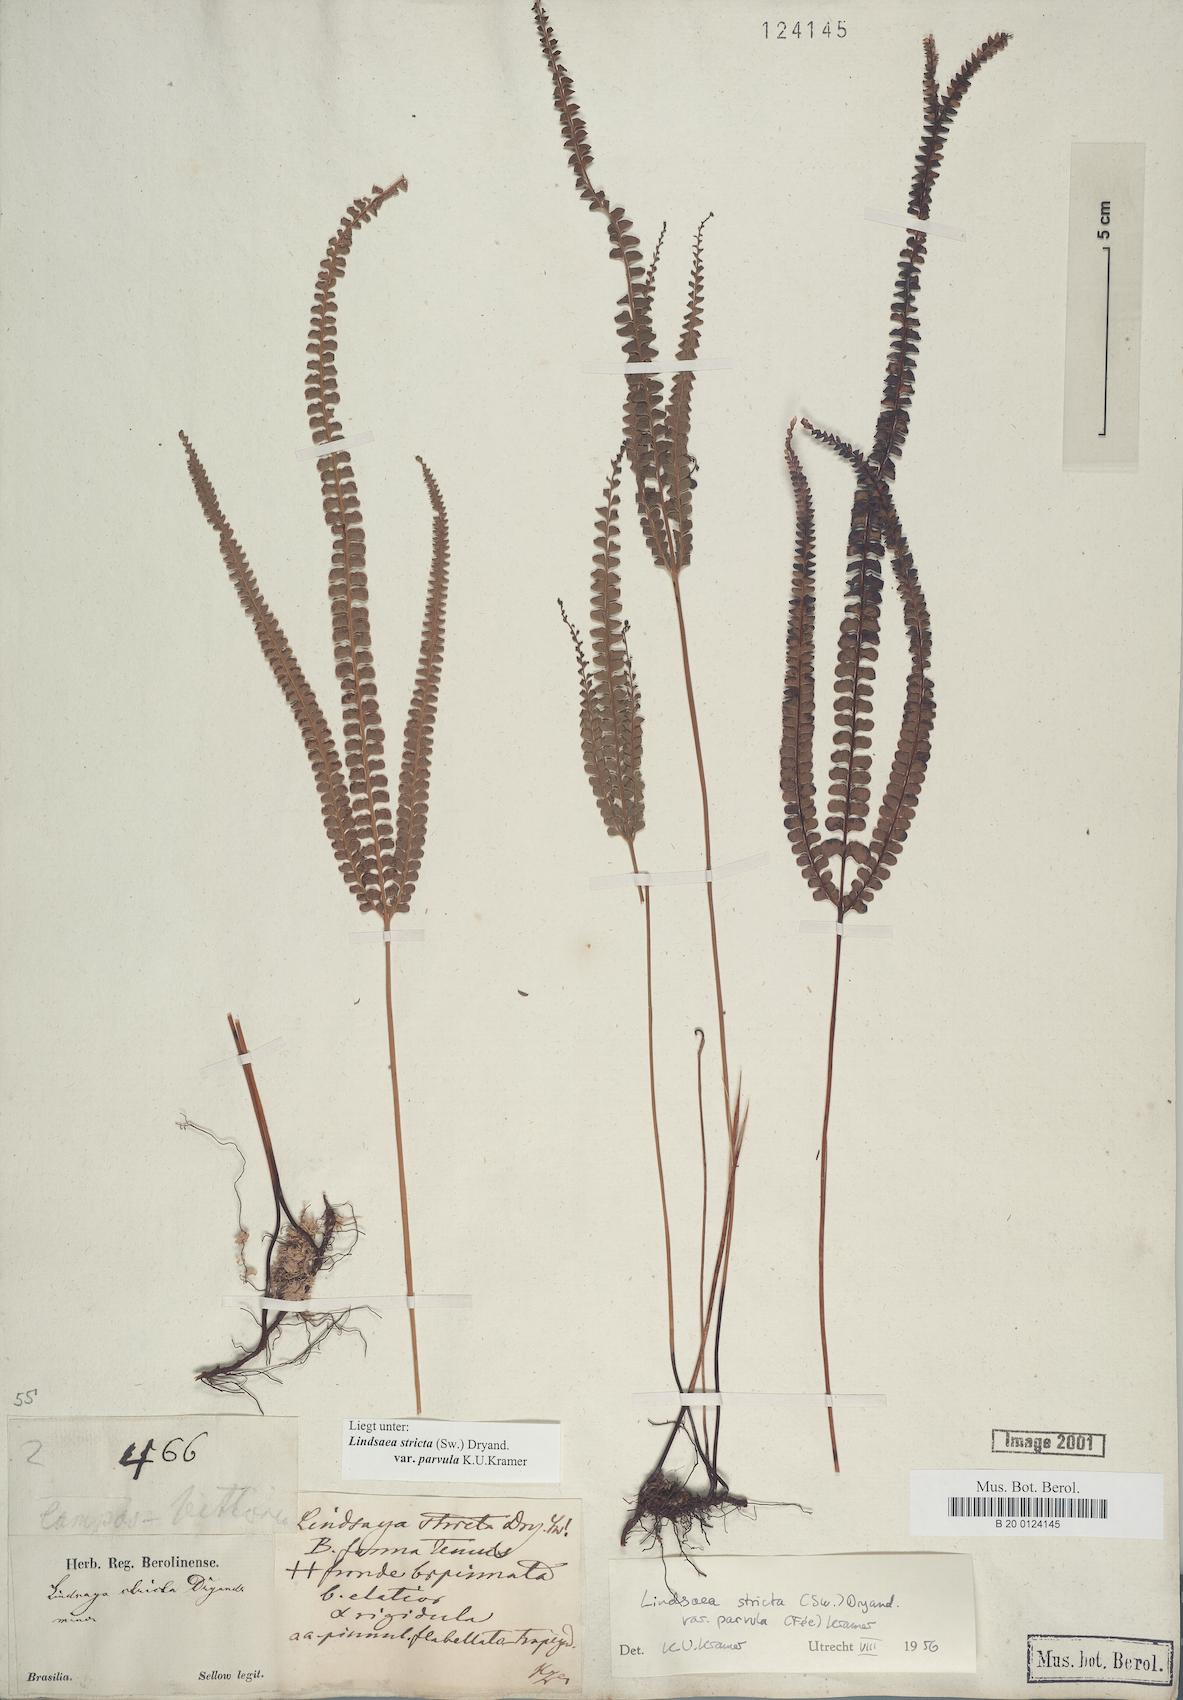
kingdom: Plantae
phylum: Tracheophyta
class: Polypodiopsida
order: Polypodiales
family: Lindsaeaceae
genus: Lindsaea
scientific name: Lindsaea stricta
